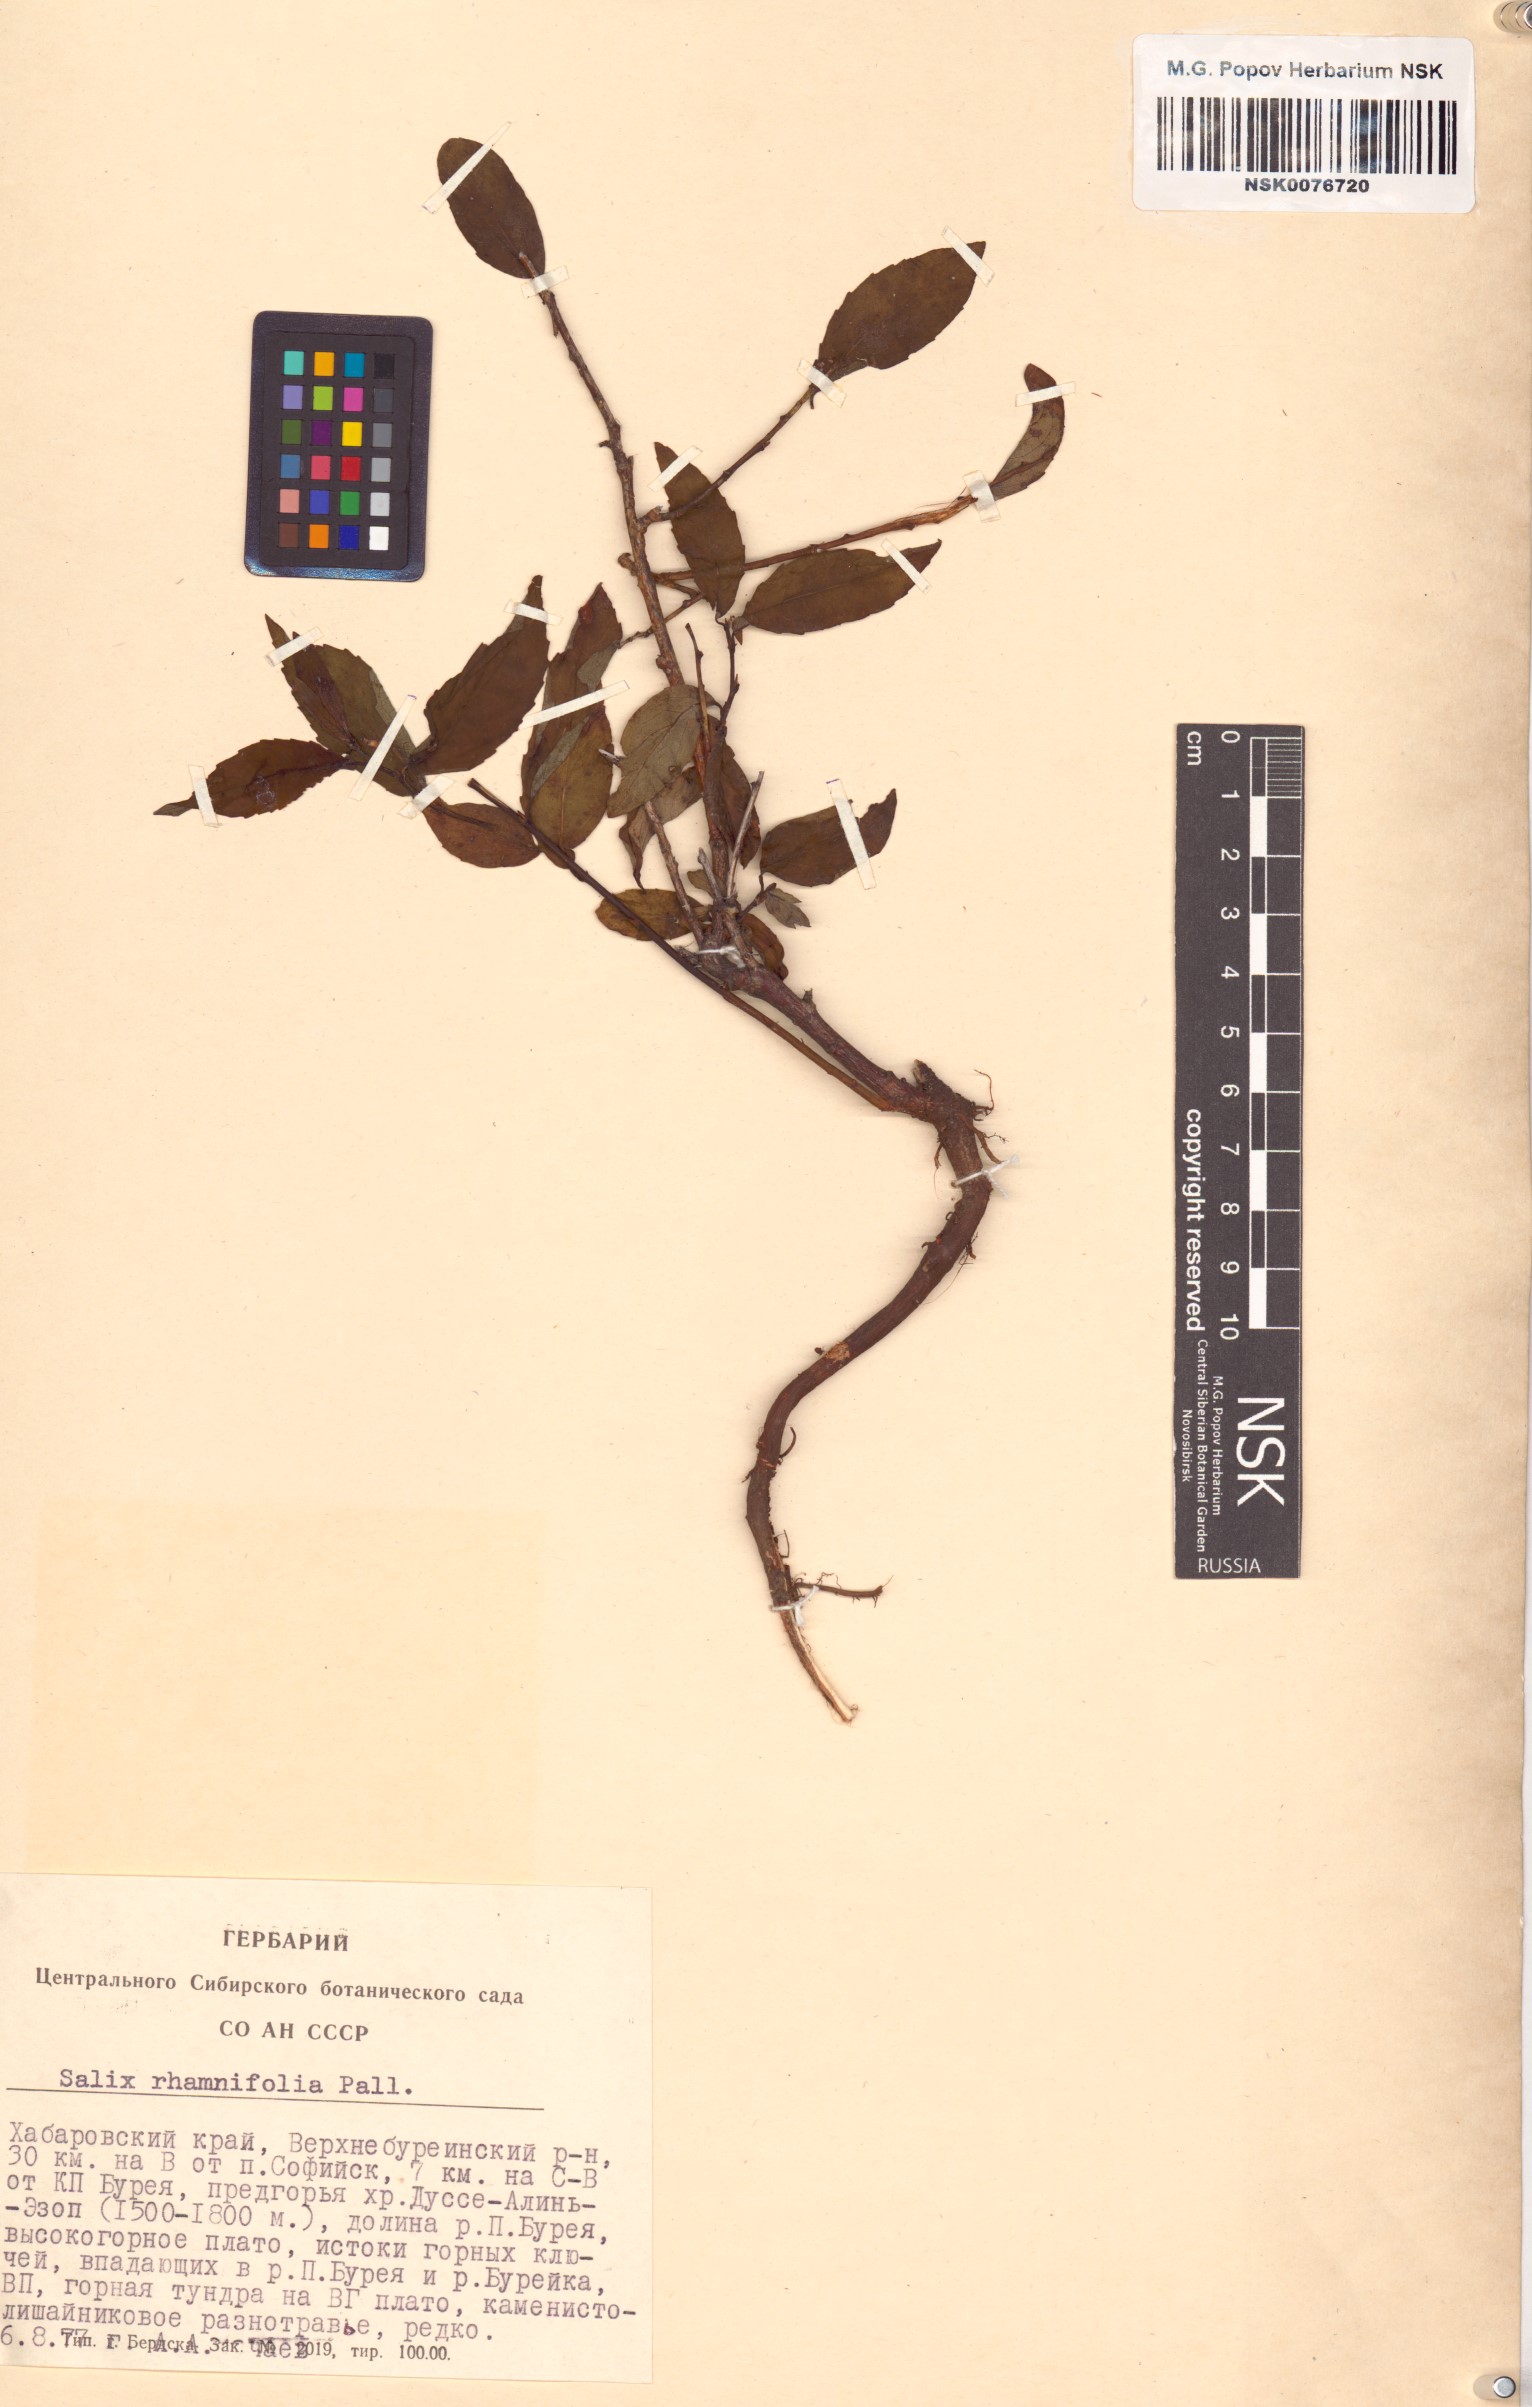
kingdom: Plantae
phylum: Tracheophyta
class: Magnoliopsida
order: Malpighiales
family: Salicaceae
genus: Salix
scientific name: Salix rhamnifolia
